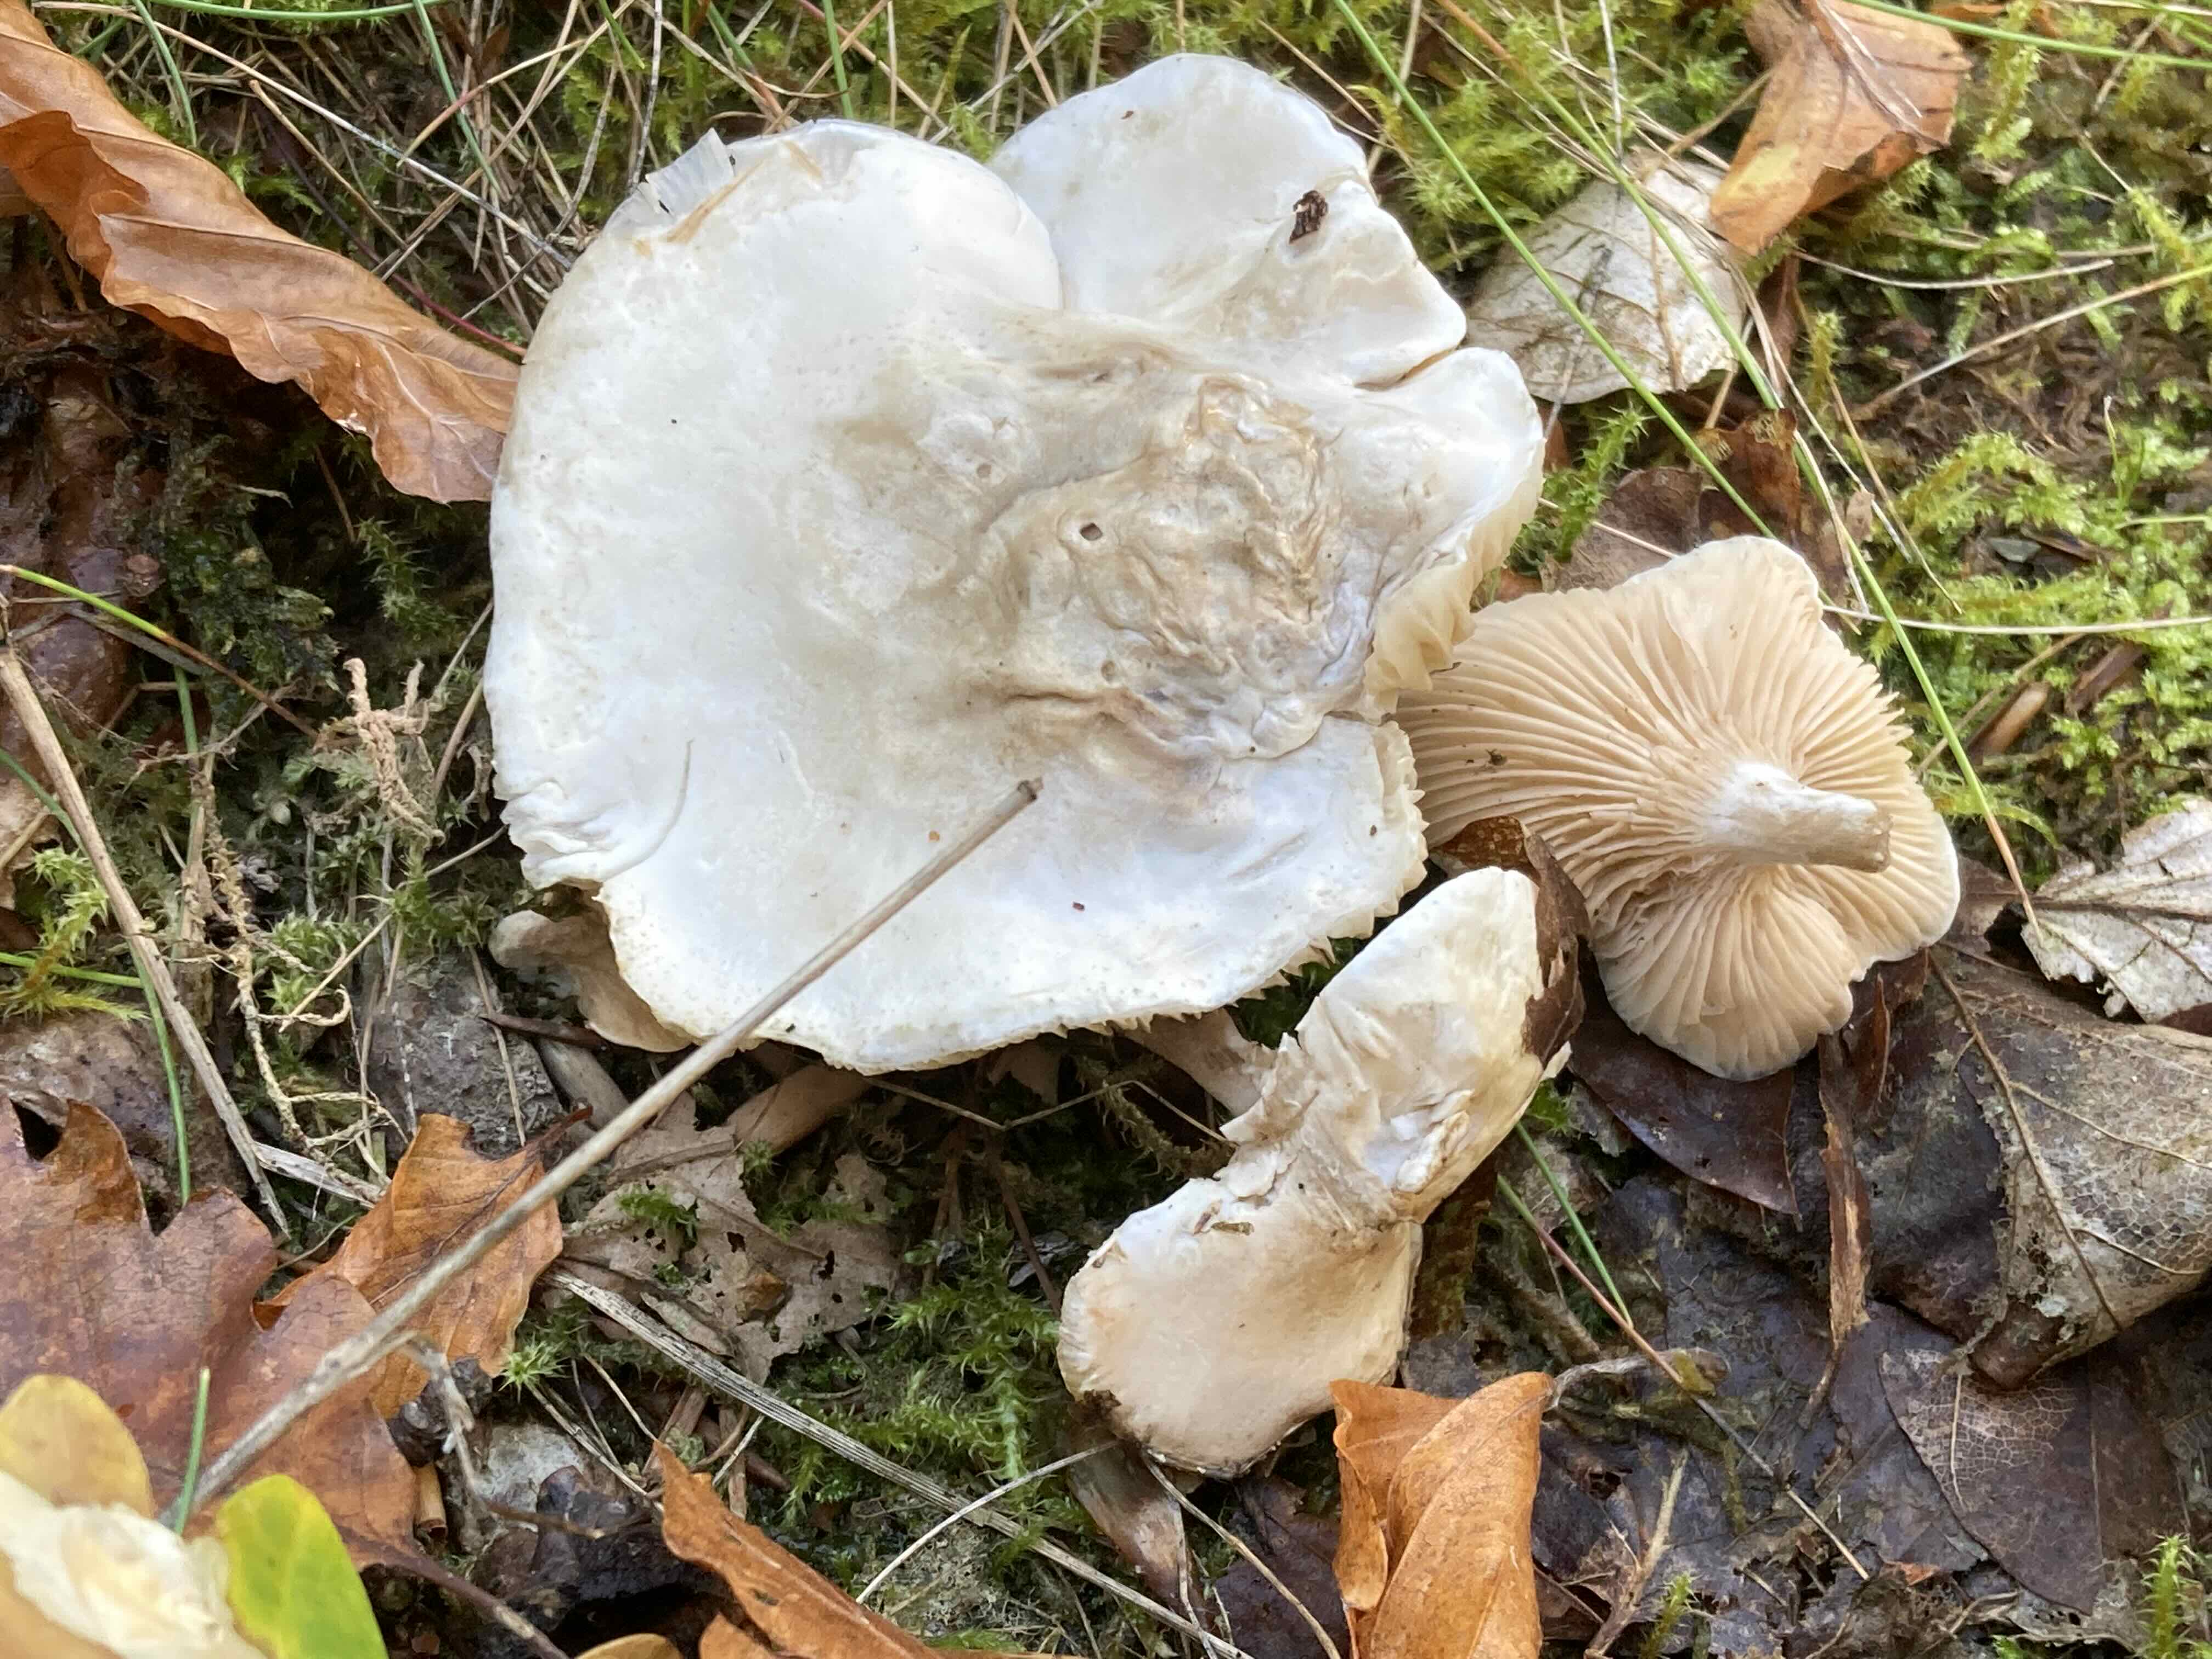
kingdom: Fungi
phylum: Basidiomycota
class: Agaricomycetes
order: Agaricales
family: Entolomataceae
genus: Clitopilus
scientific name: Clitopilus prunulus
